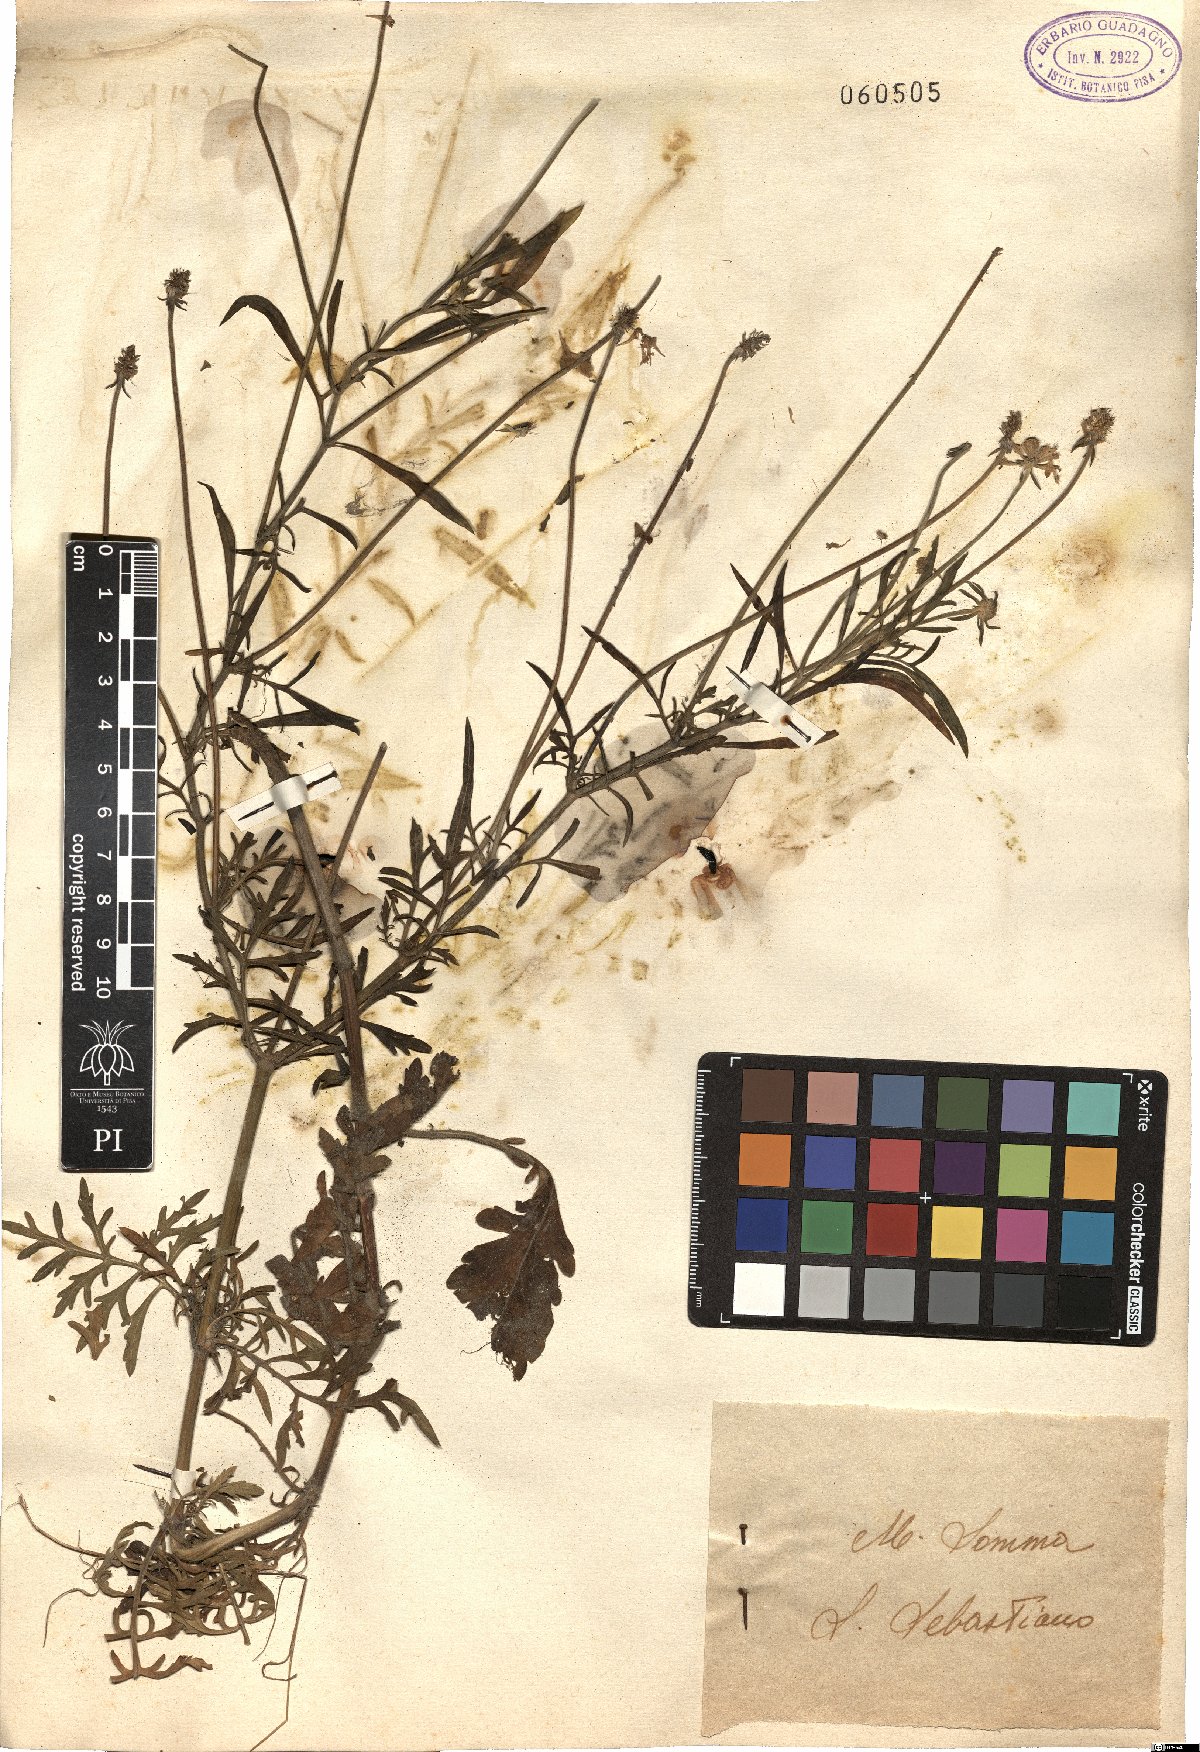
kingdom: Plantae
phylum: Tracheophyta
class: Magnoliopsida
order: Dipsacales
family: Caprifoliaceae
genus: Scabiosa
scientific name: Scabiosa
